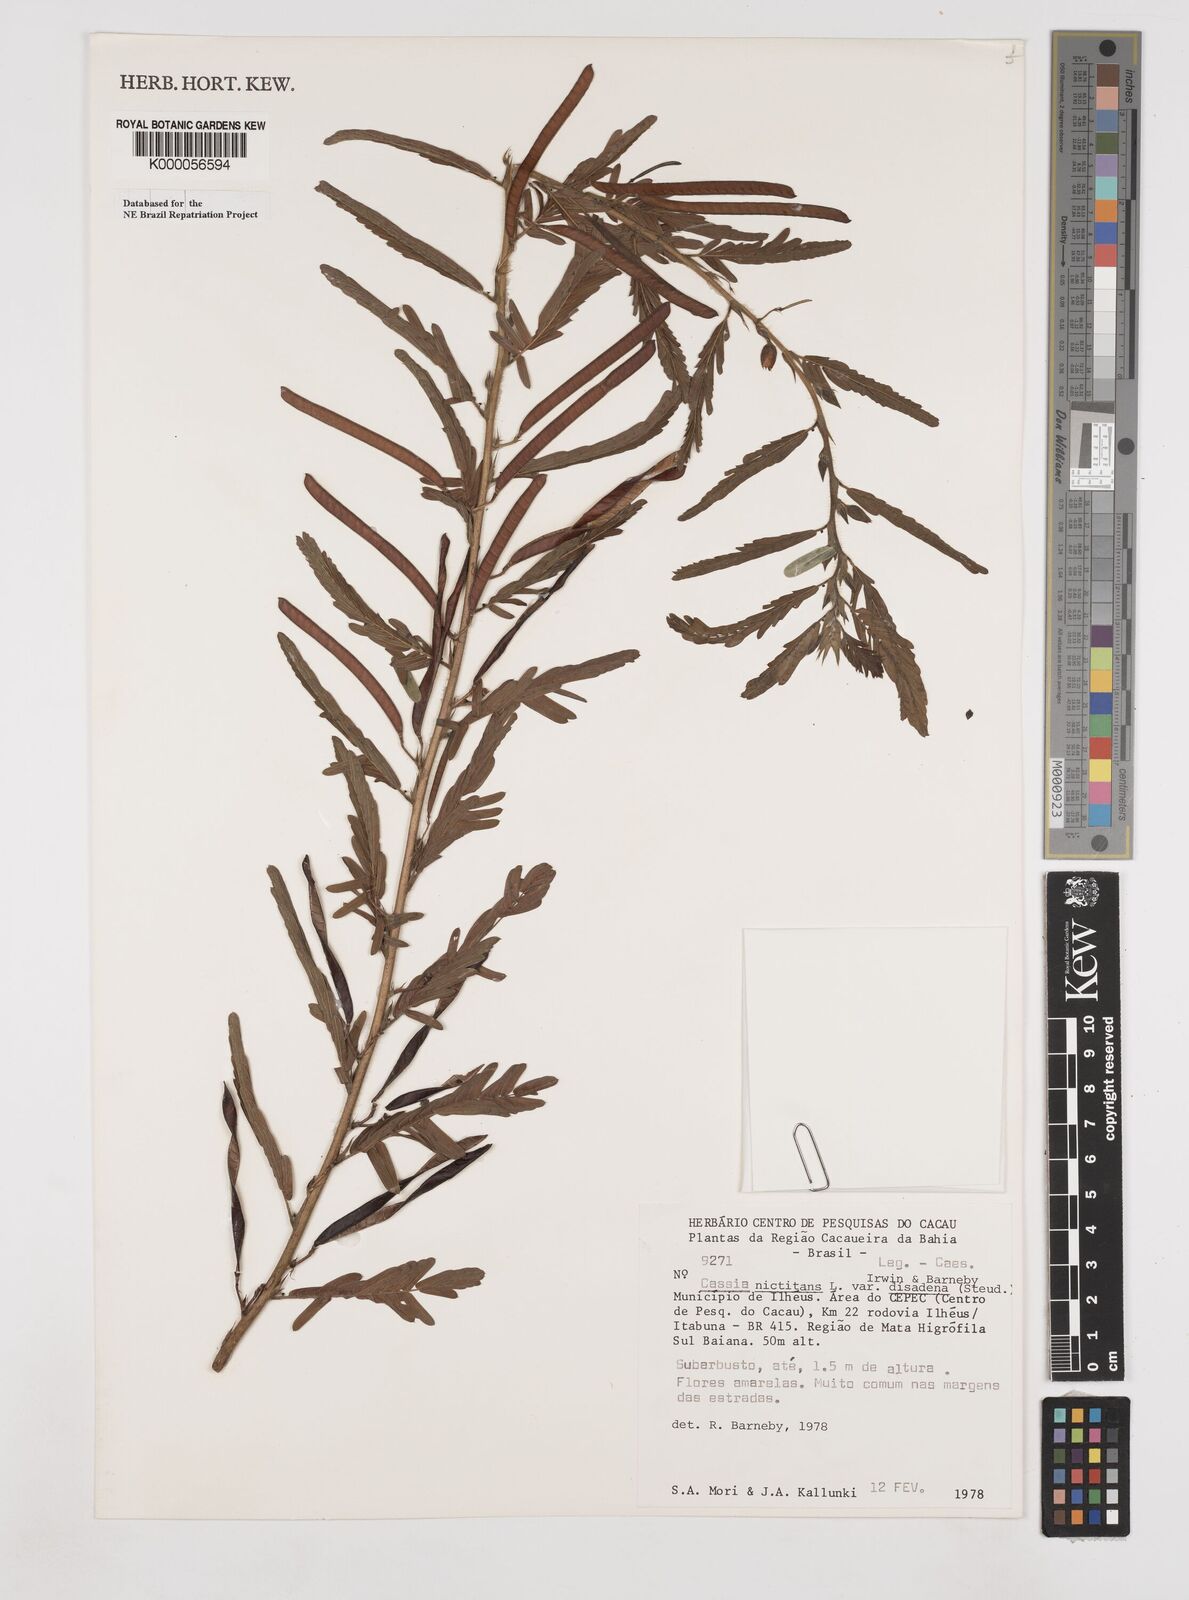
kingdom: Plantae
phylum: Tracheophyta
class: Magnoliopsida
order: Fabales
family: Fabaceae
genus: Chamaecrista
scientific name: Chamaecrista nictitans
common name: Sensitive cassia
